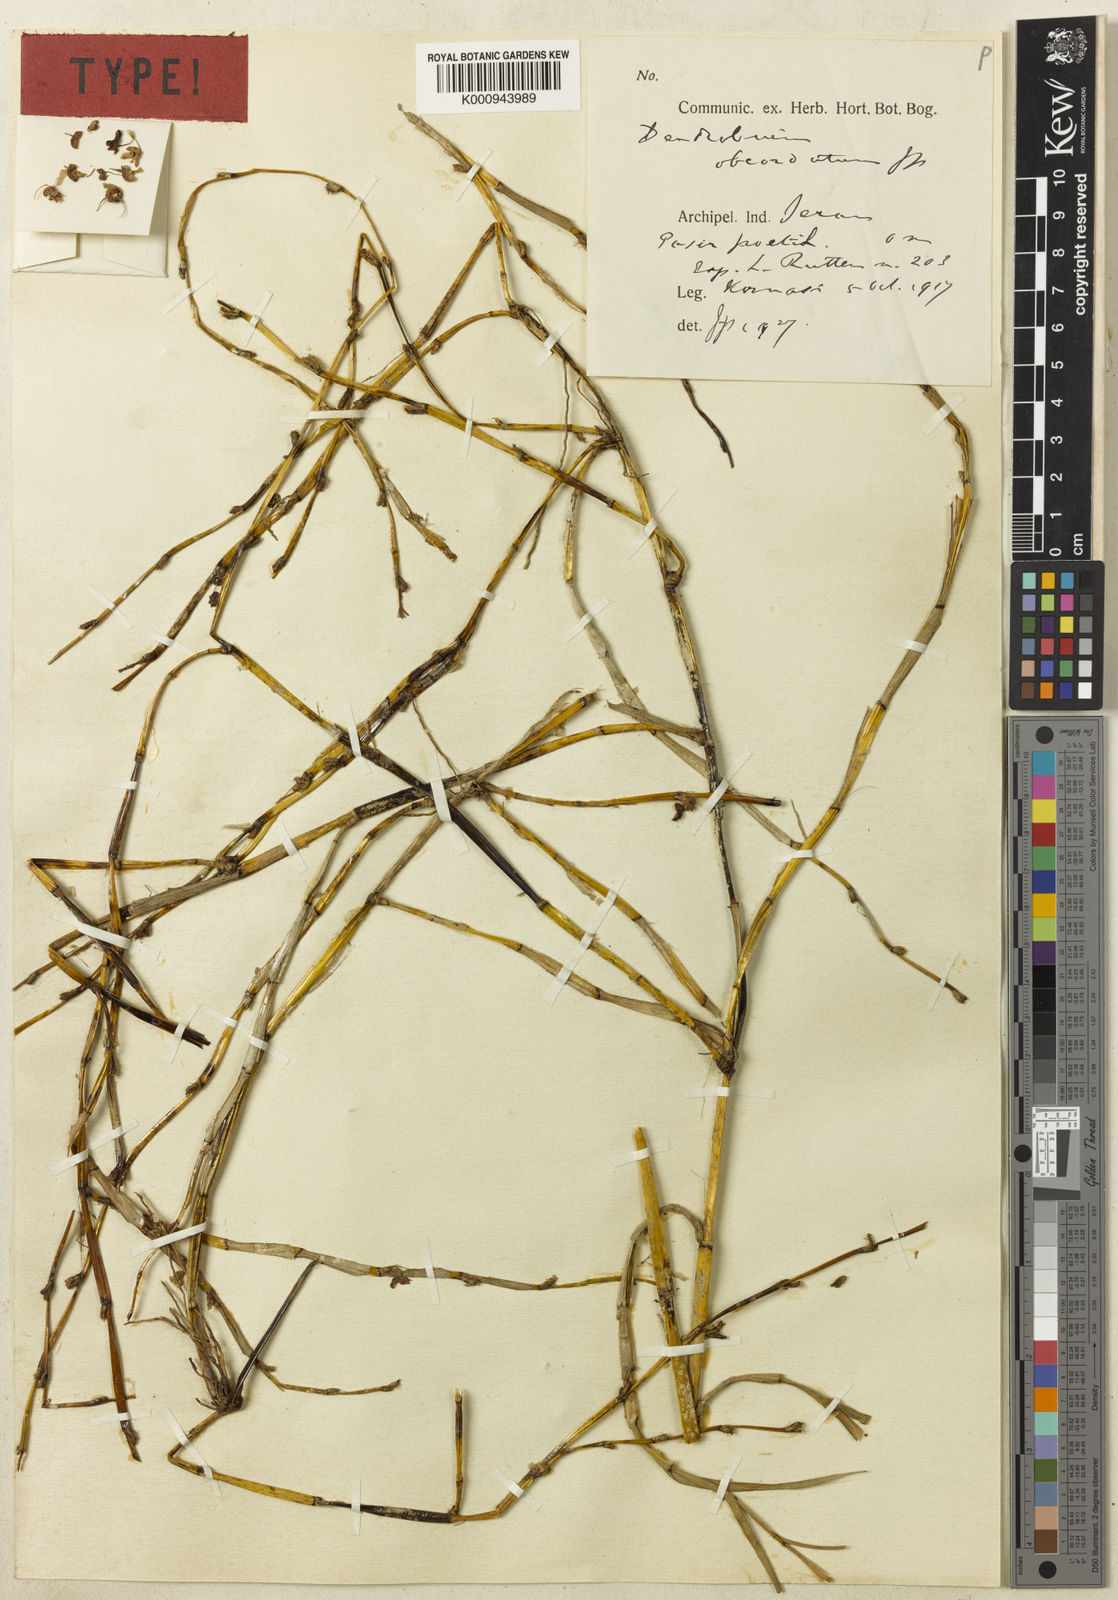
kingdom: Plantae
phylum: Tracheophyta
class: Liliopsida
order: Asparagales
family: Orchidaceae
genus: Dendrobium
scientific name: Dendrobium nebularum
